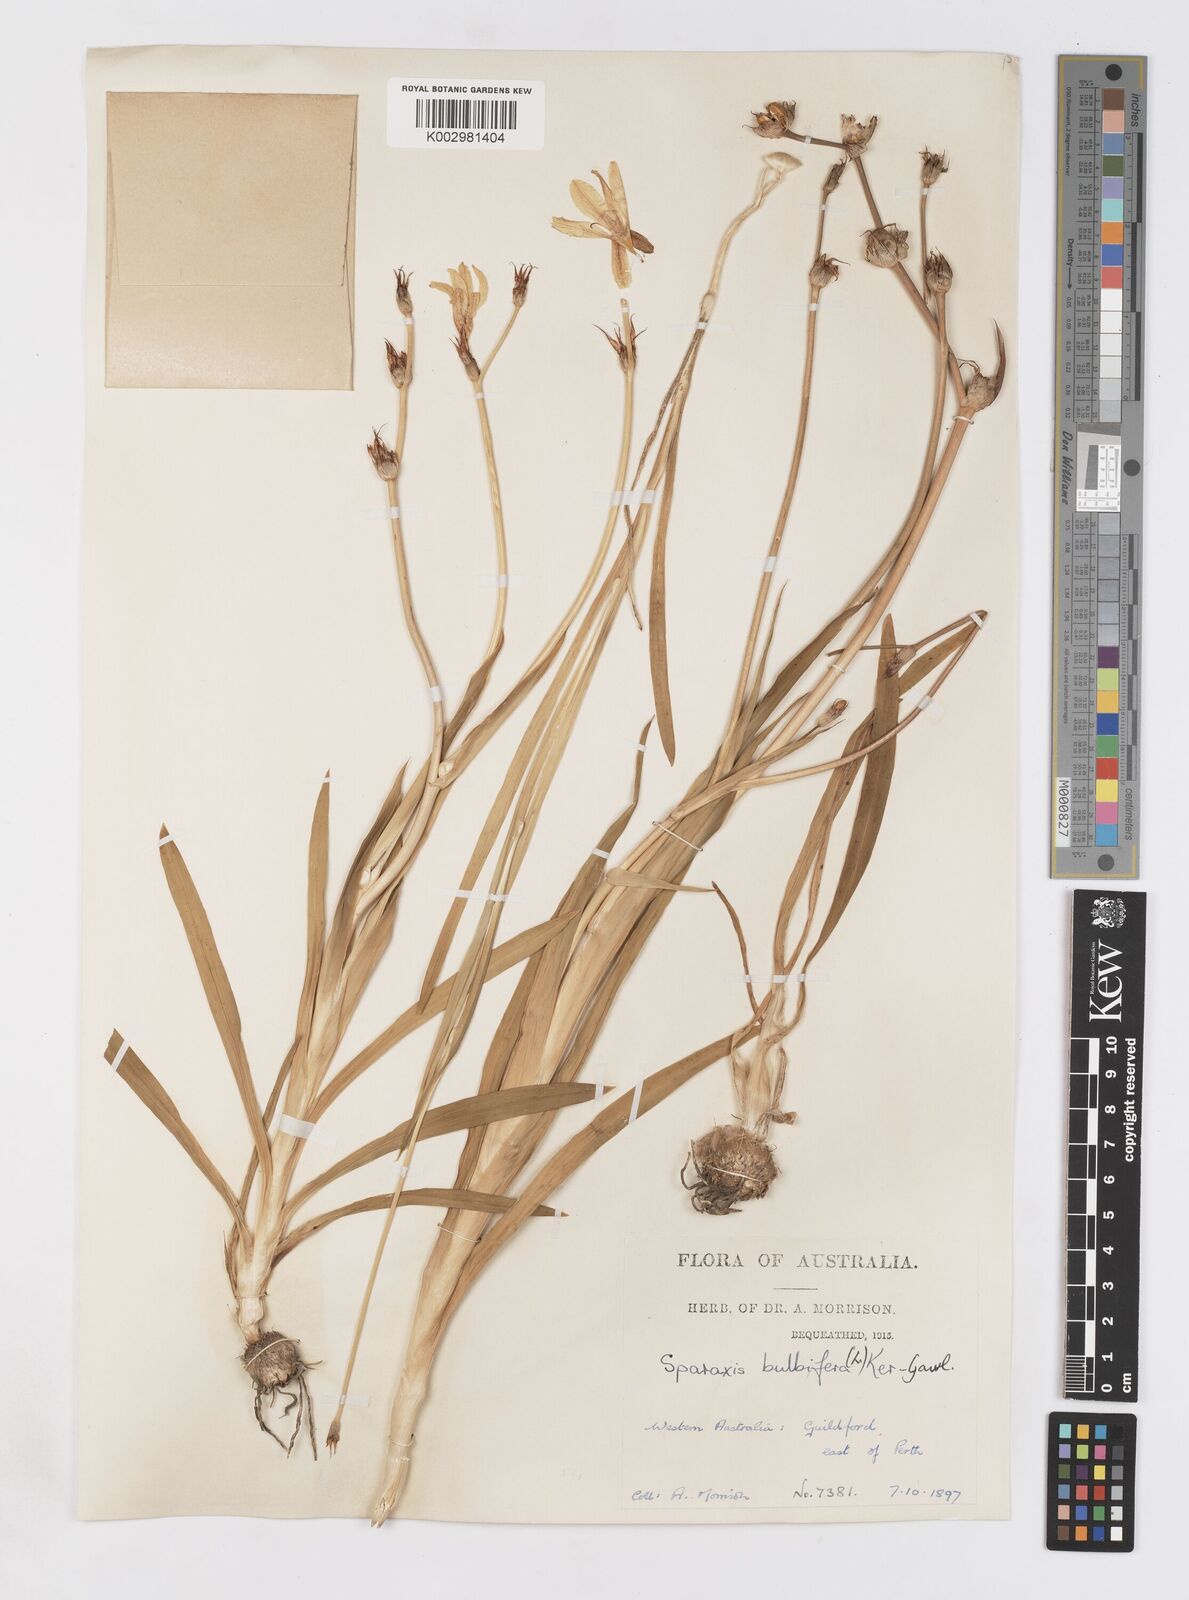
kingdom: Plantae
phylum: Tracheophyta
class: Liliopsida
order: Asparagales
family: Iridaceae
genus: Sparaxis
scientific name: Sparaxis bulbifera
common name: Harlequin-flower
